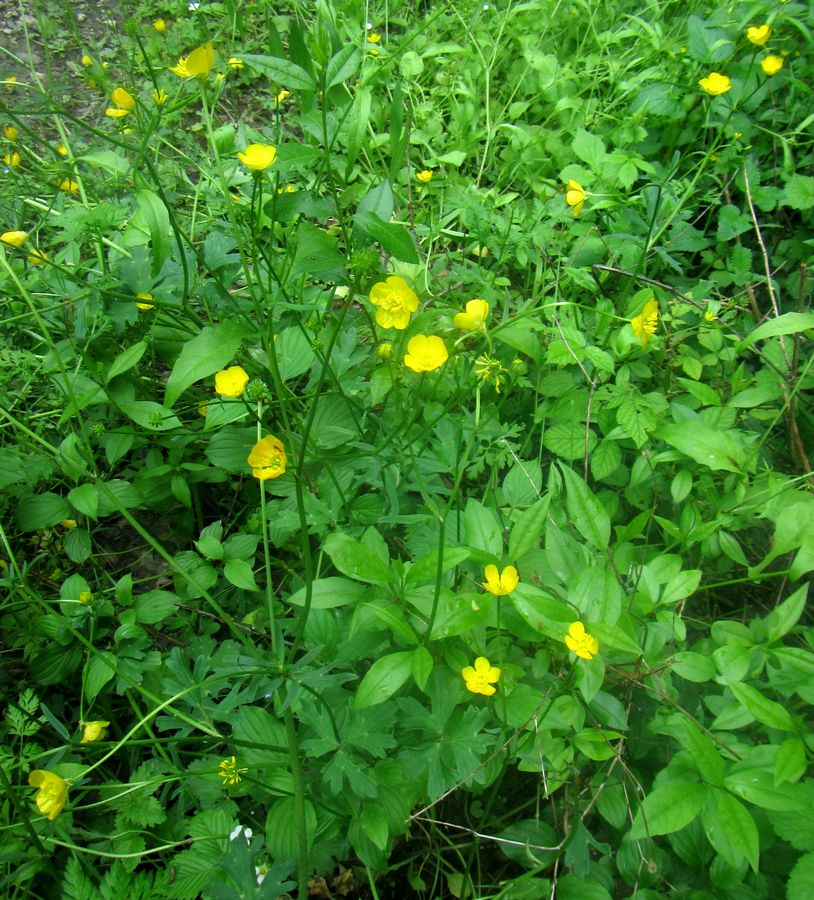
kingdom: Plantae
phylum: Tracheophyta
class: Magnoliopsida
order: Ranunculales
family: Ranunculaceae
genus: Ranunculus
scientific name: Ranunculus
